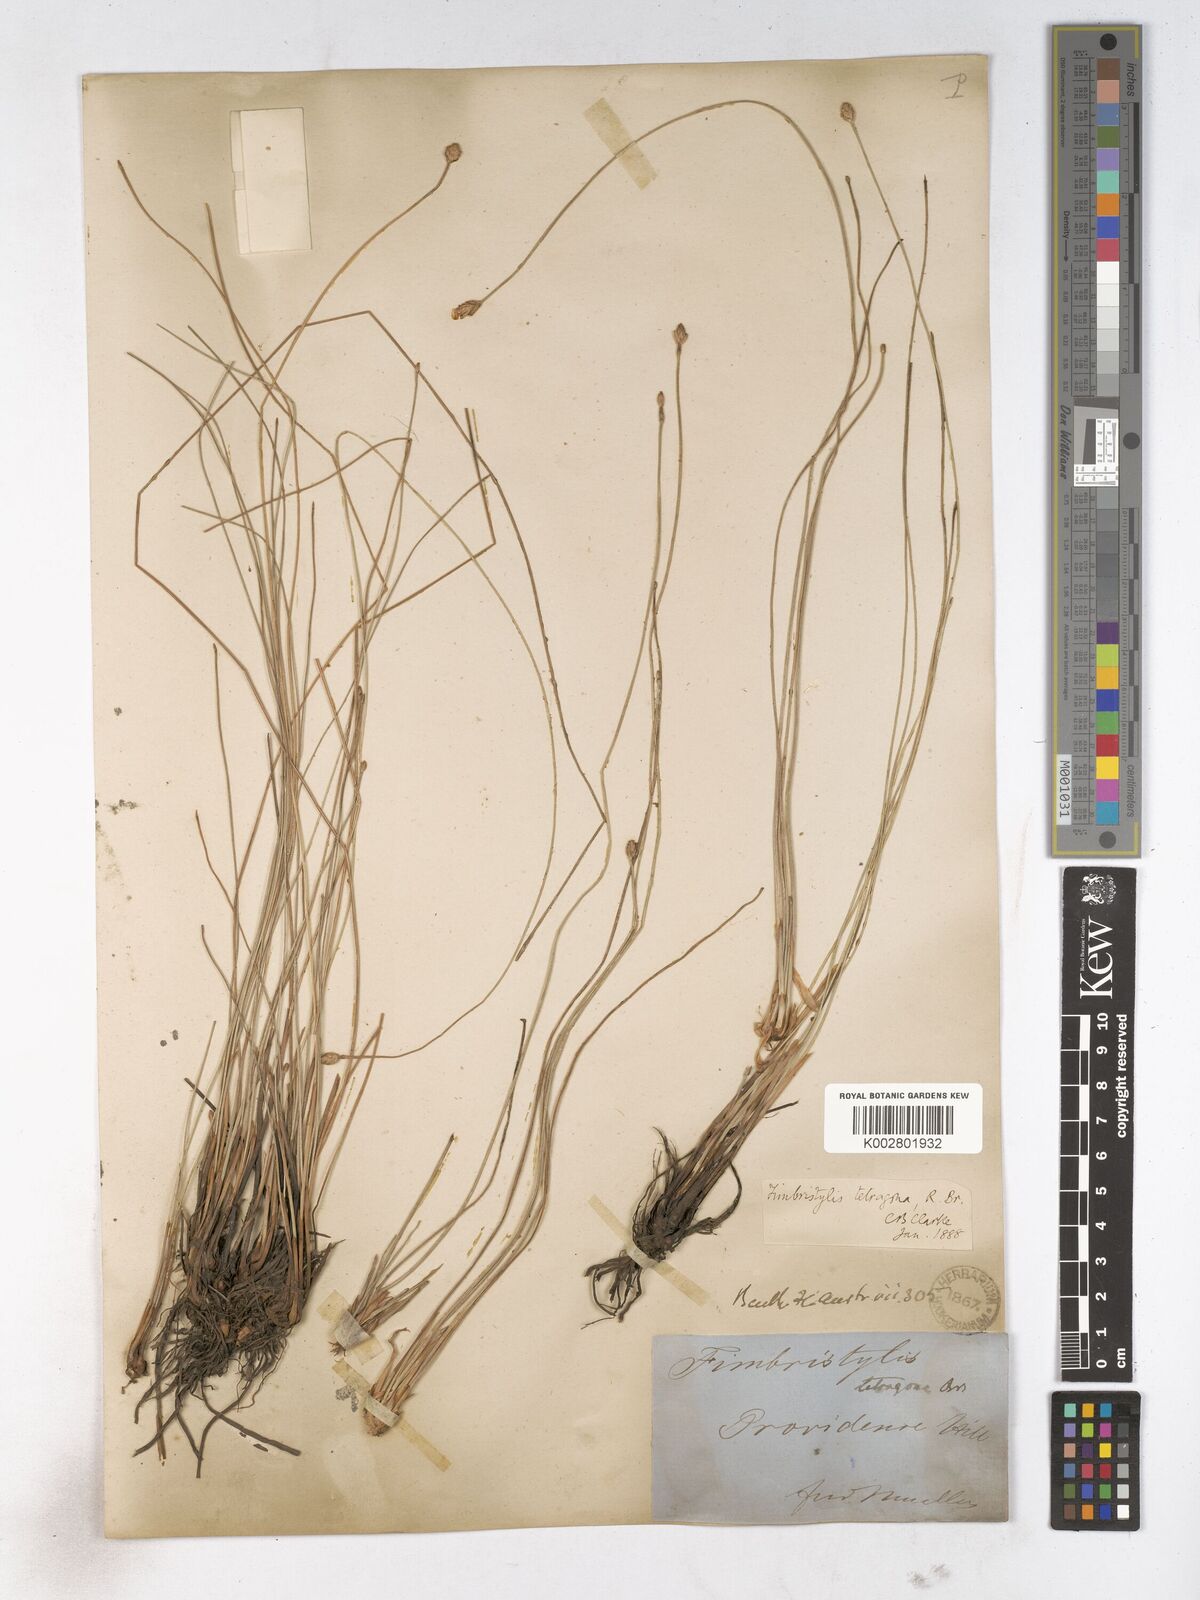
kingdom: Plantae
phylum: Tracheophyta
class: Liliopsida
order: Poales
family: Cyperaceae
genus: Fimbristylis
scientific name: Fimbristylis tetragona
